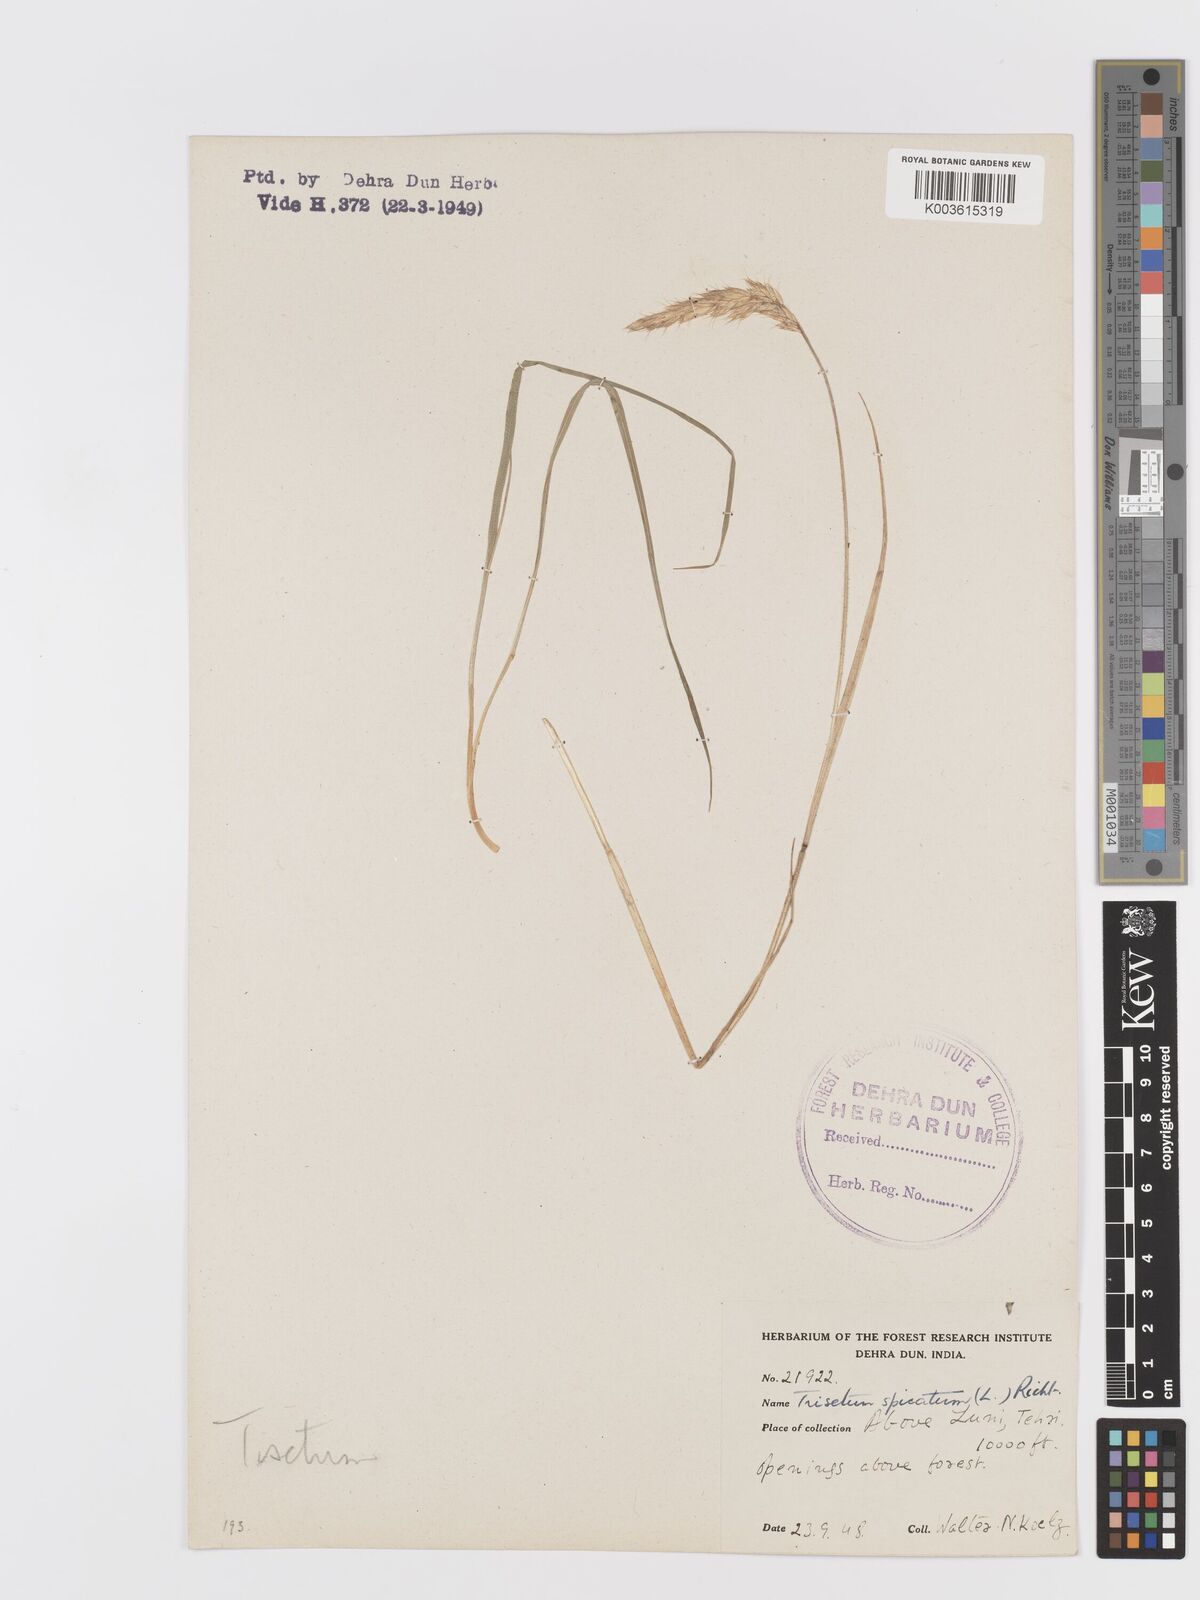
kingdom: Plantae
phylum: Tracheophyta
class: Liliopsida
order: Poales
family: Poaceae
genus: Koeleria
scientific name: Koeleria spicata
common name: Mountain trisetum
